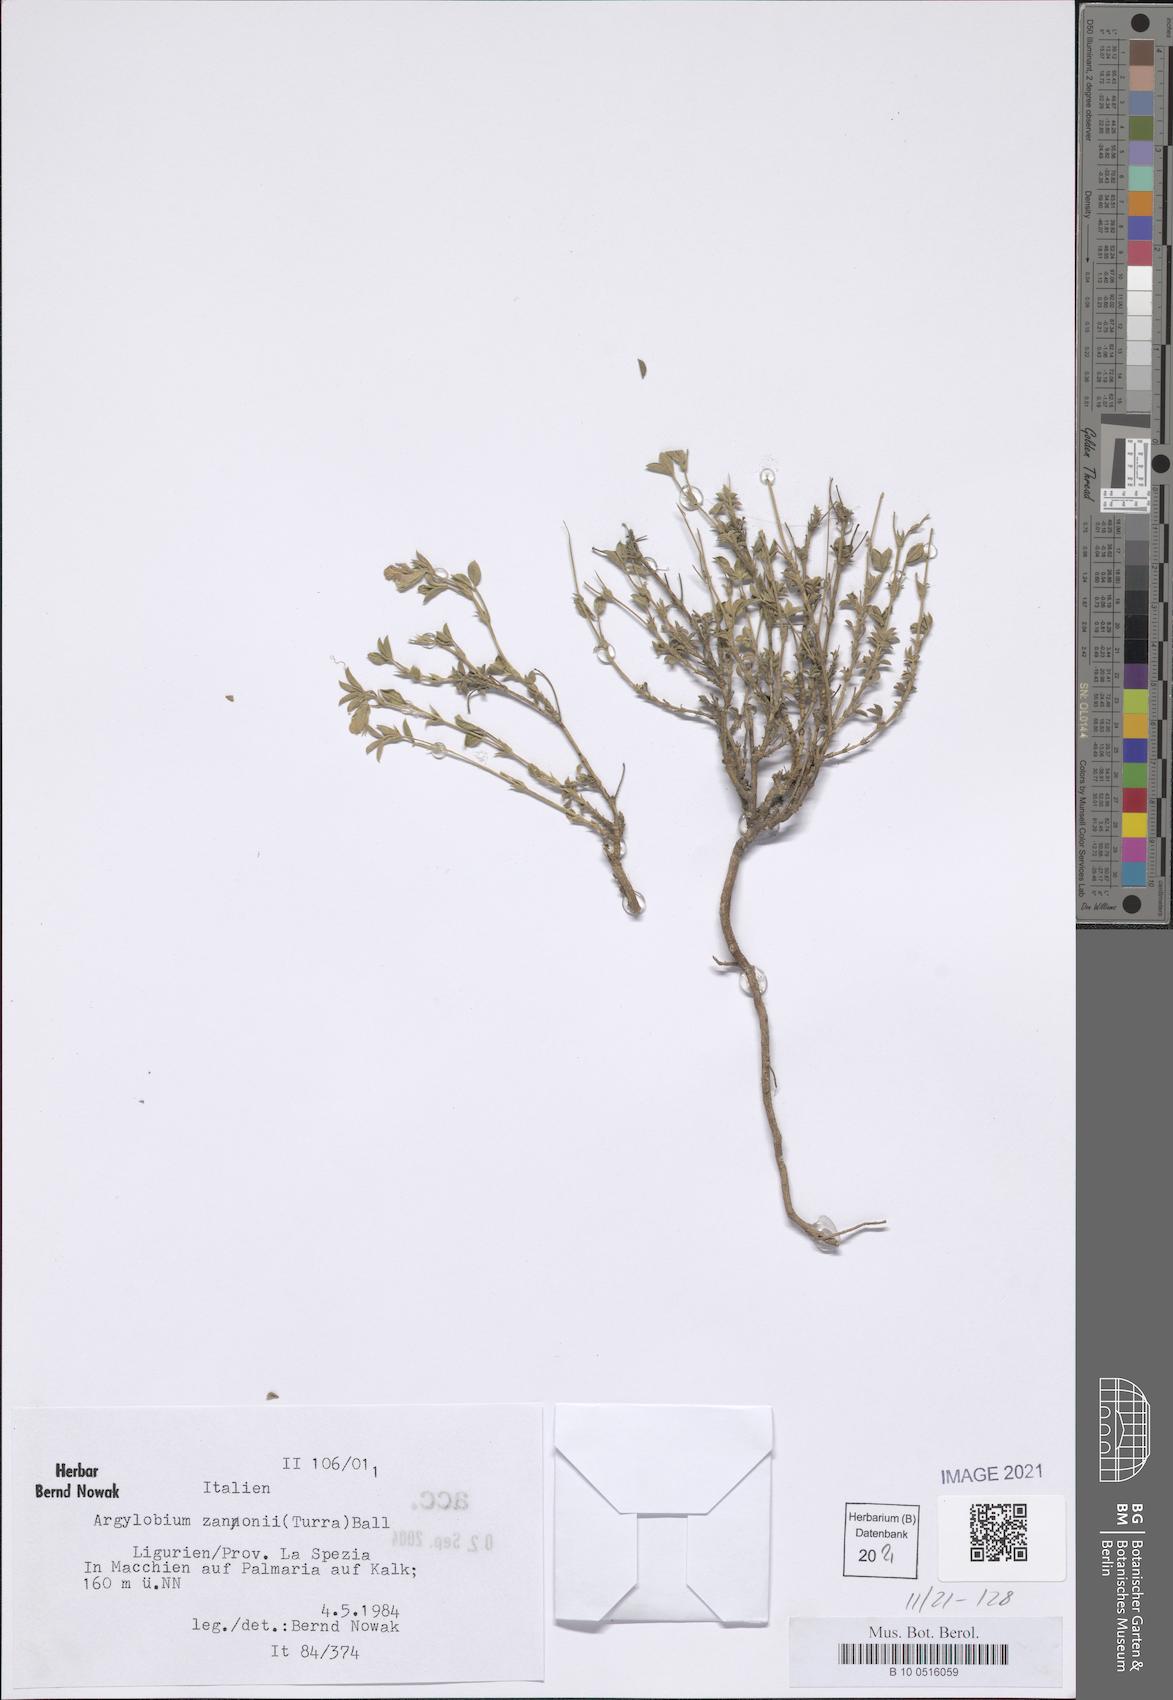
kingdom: Plantae
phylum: Tracheophyta
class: Magnoliopsida
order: Fabales
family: Fabaceae
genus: Argyrolobium
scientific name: Argyrolobium zanonii
